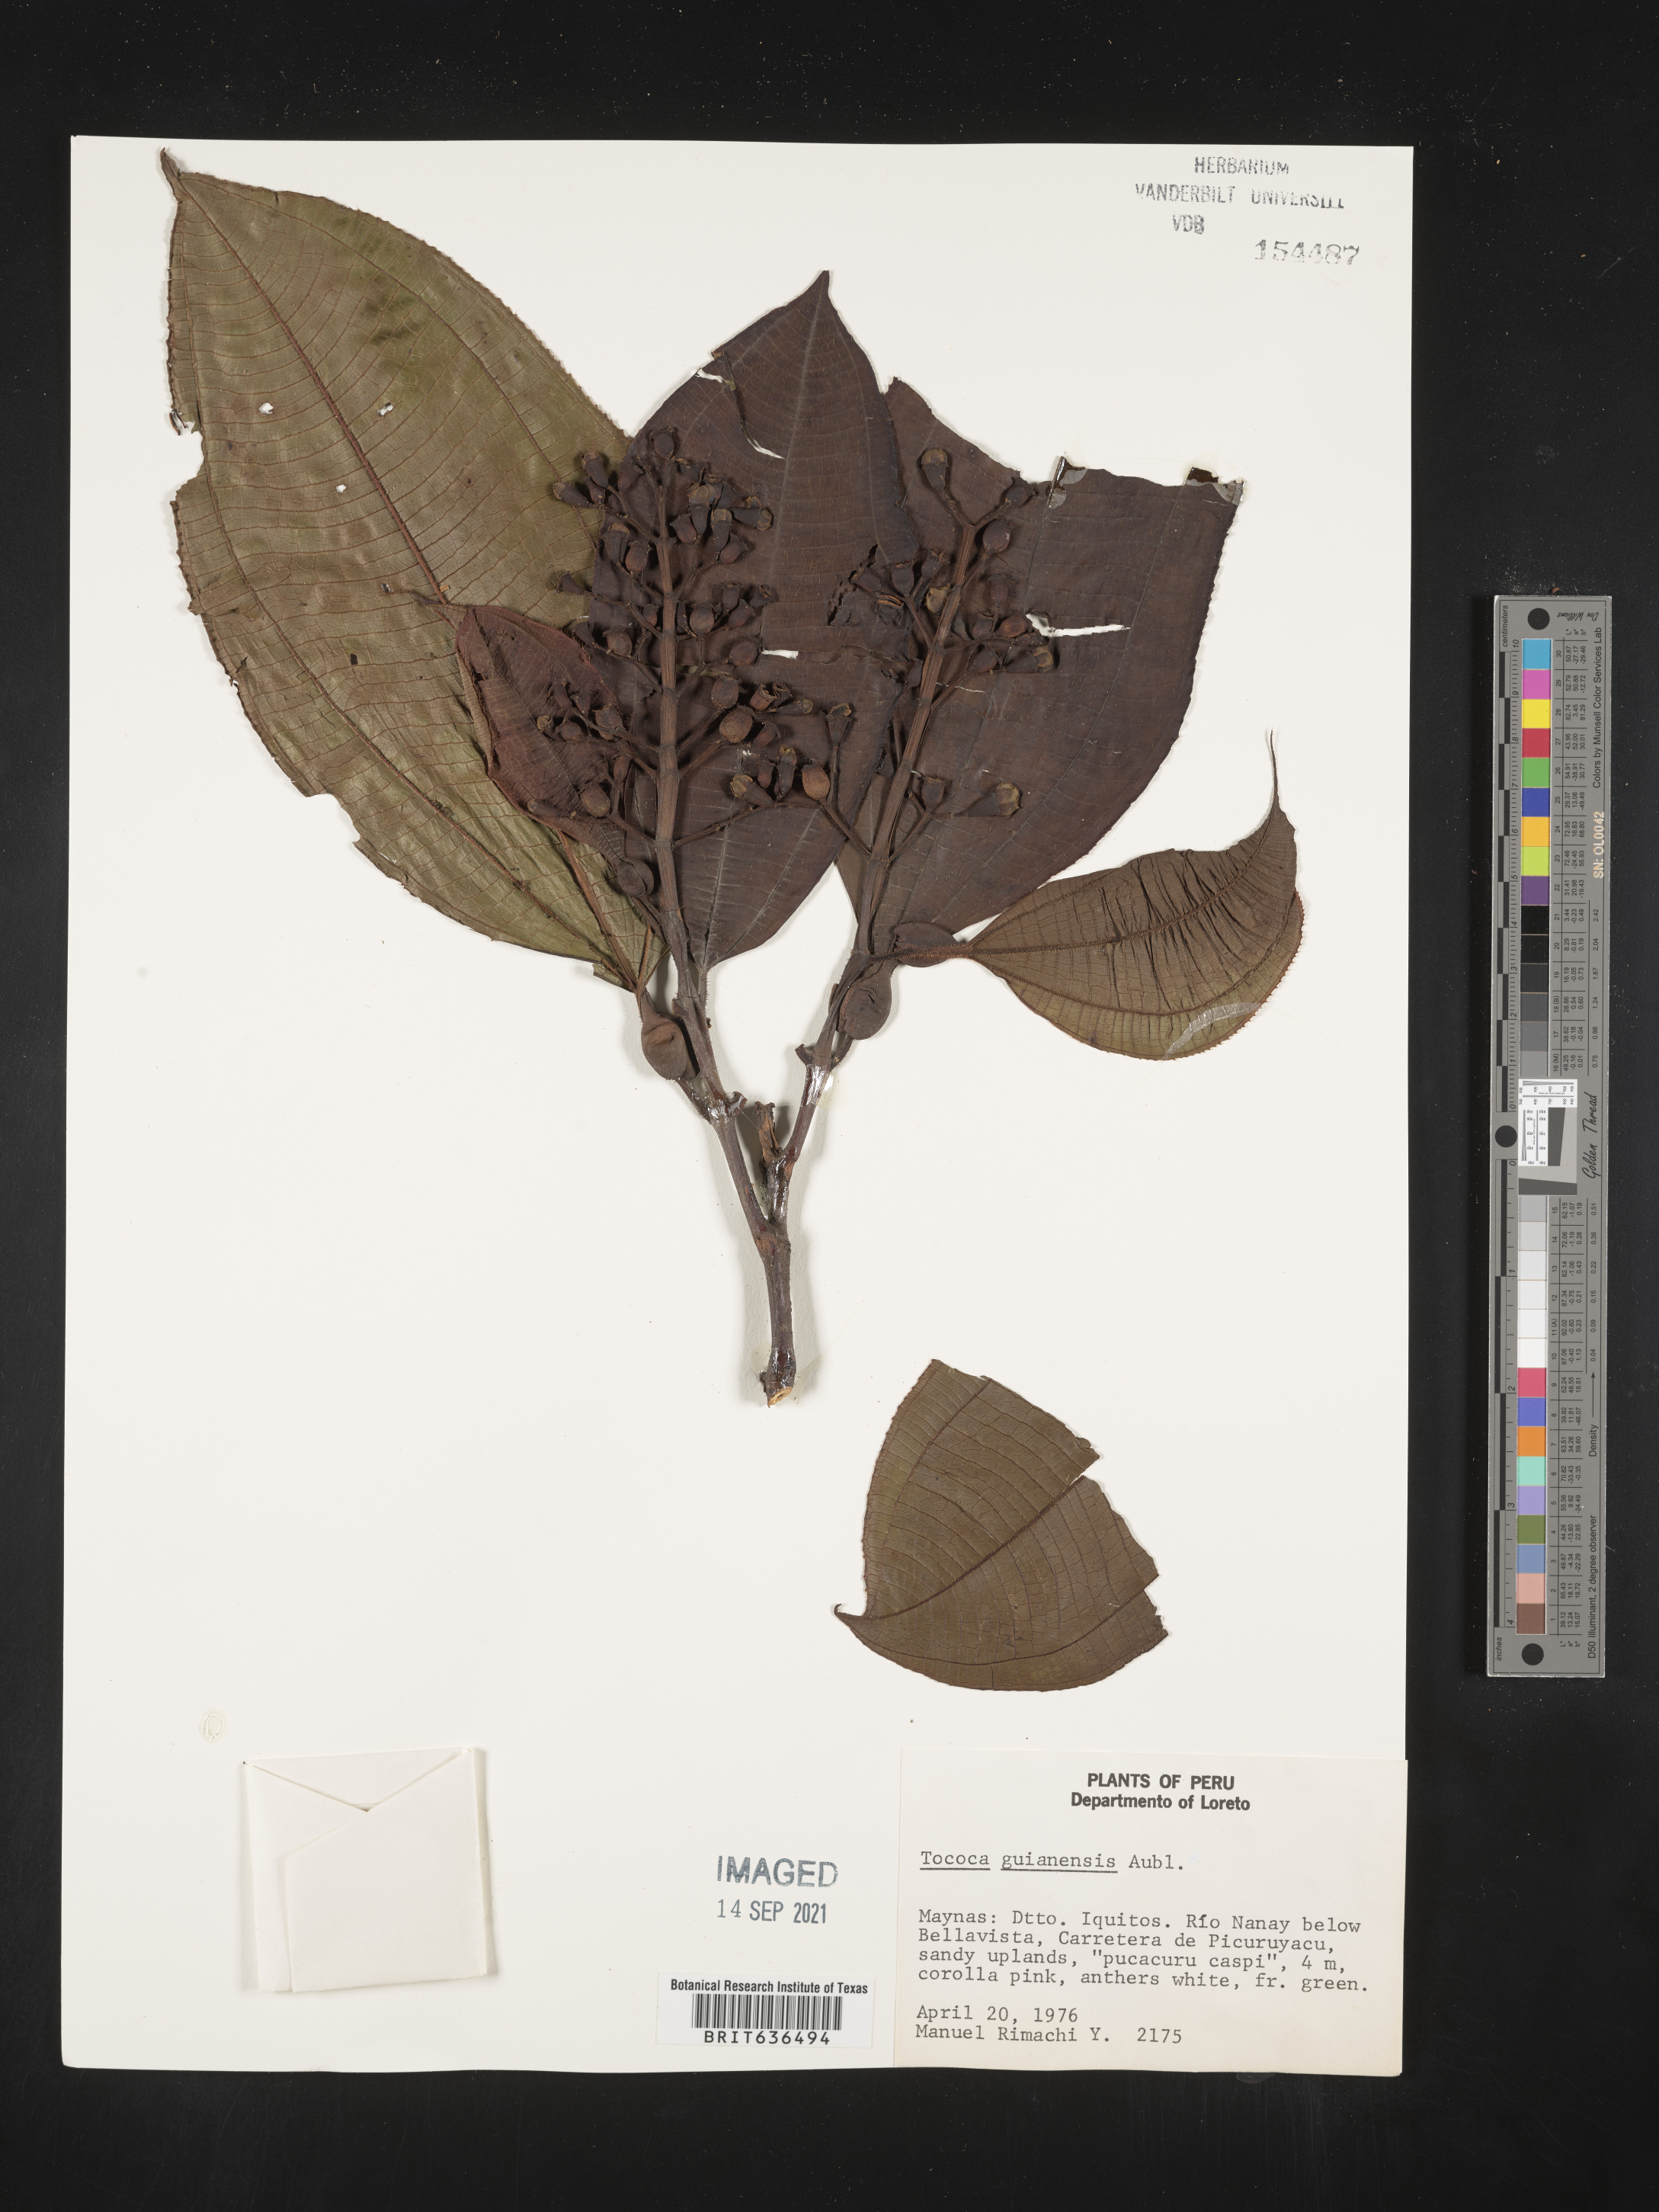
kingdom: Plantae
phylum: Tracheophyta
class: Magnoliopsida
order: Myrtales
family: Melastomataceae
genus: Tibouchina
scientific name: Tibouchina
